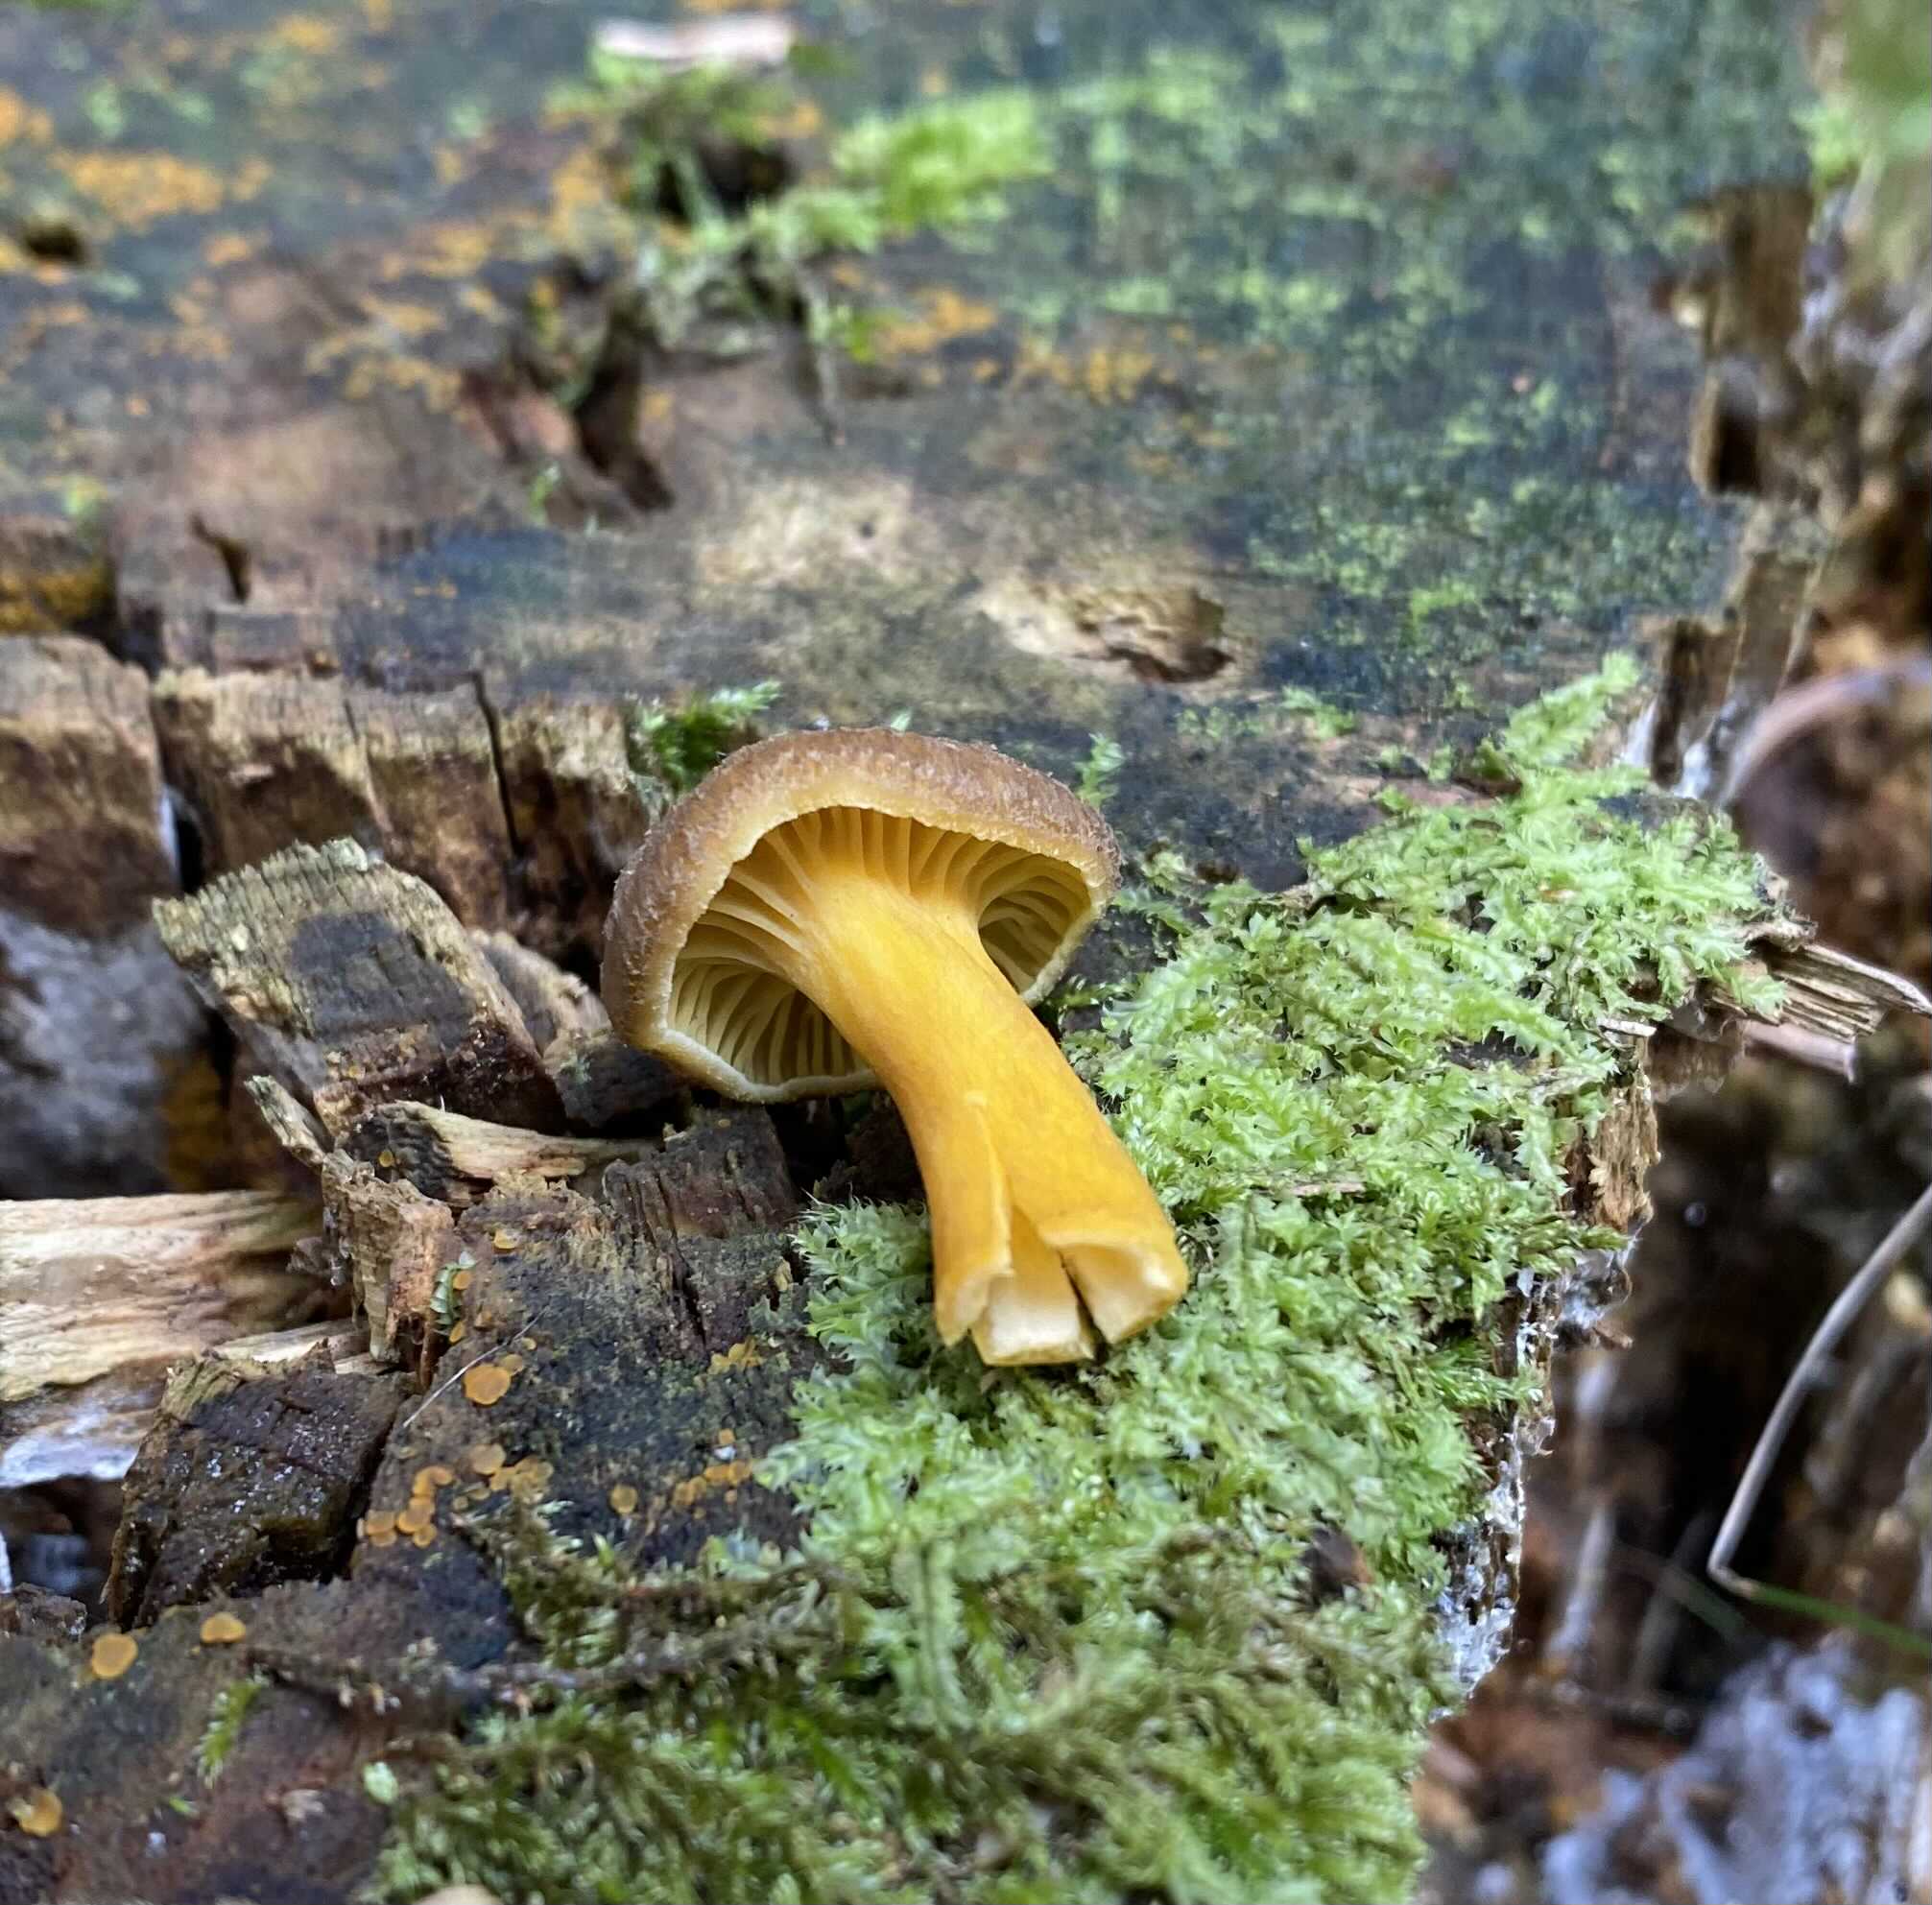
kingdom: Fungi
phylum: Basidiomycota
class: Agaricomycetes
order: Cantharellales
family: Hydnaceae
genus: Craterellus
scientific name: Craterellus tubaeformis
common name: tragt-kantarel
